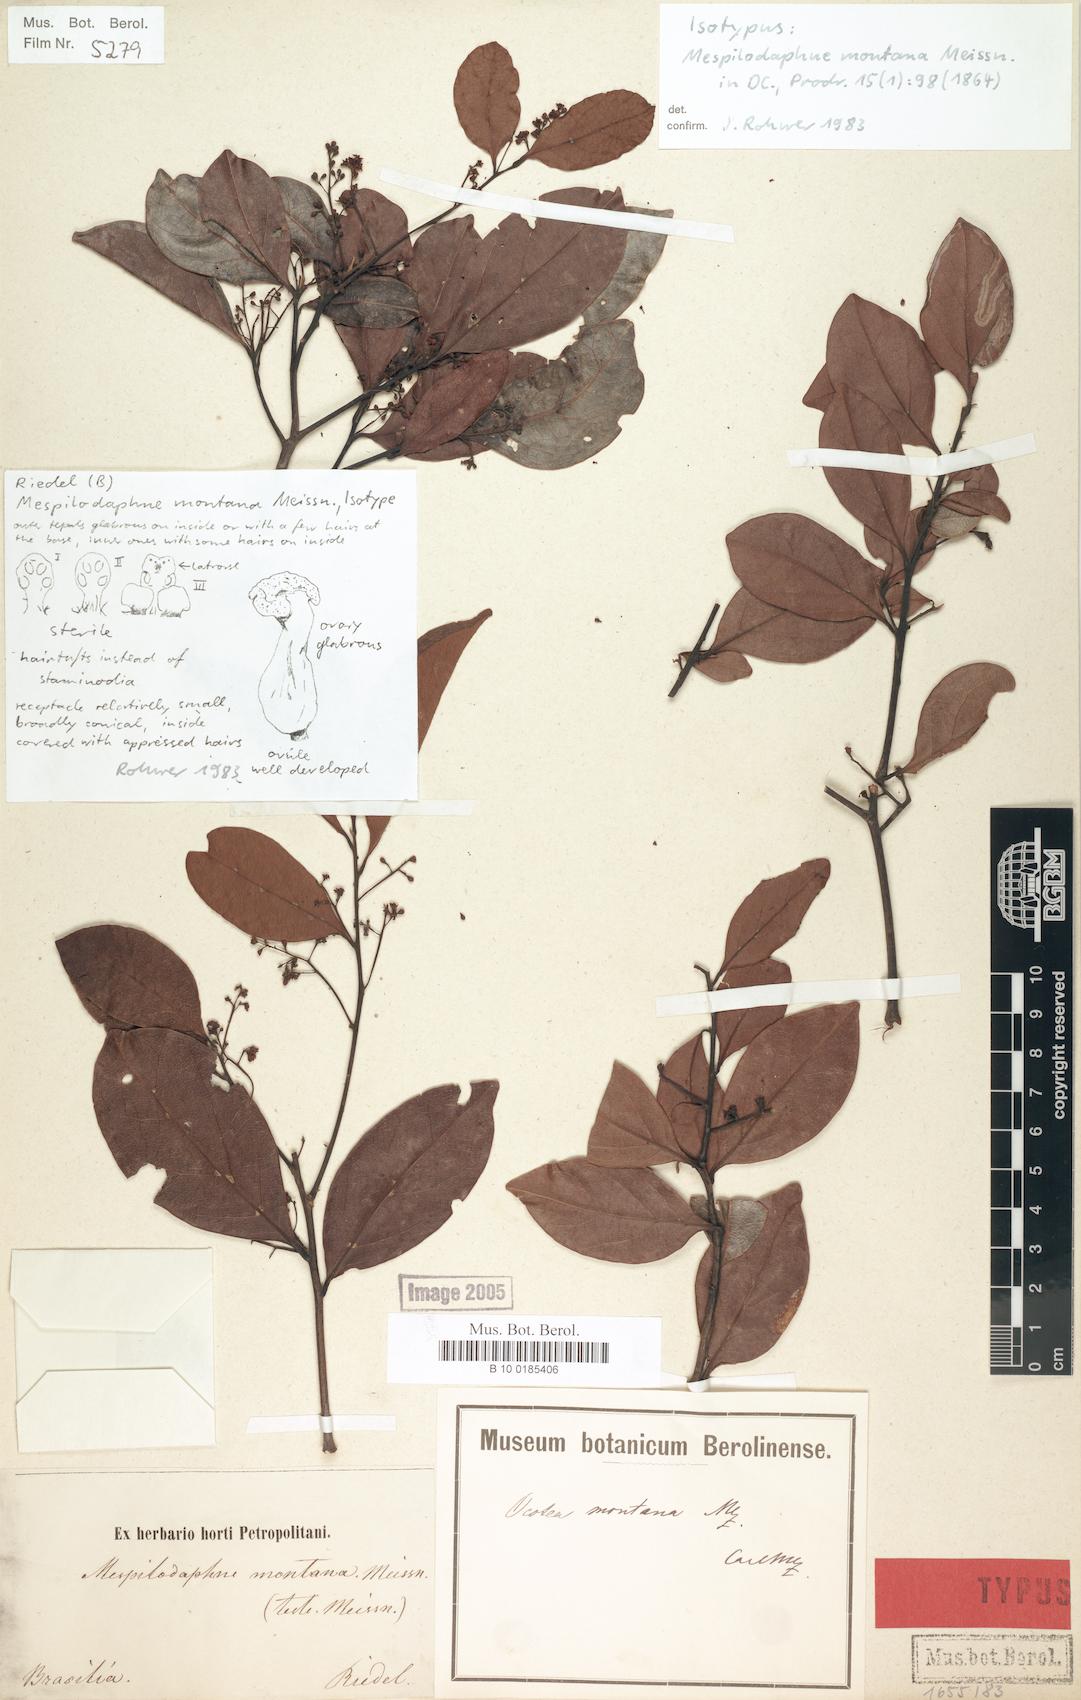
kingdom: Plantae
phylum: Tracheophyta
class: Magnoliopsida
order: Laurales
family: Lauraceae
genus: Mespilodaphne
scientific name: Mespilodaphne montana
